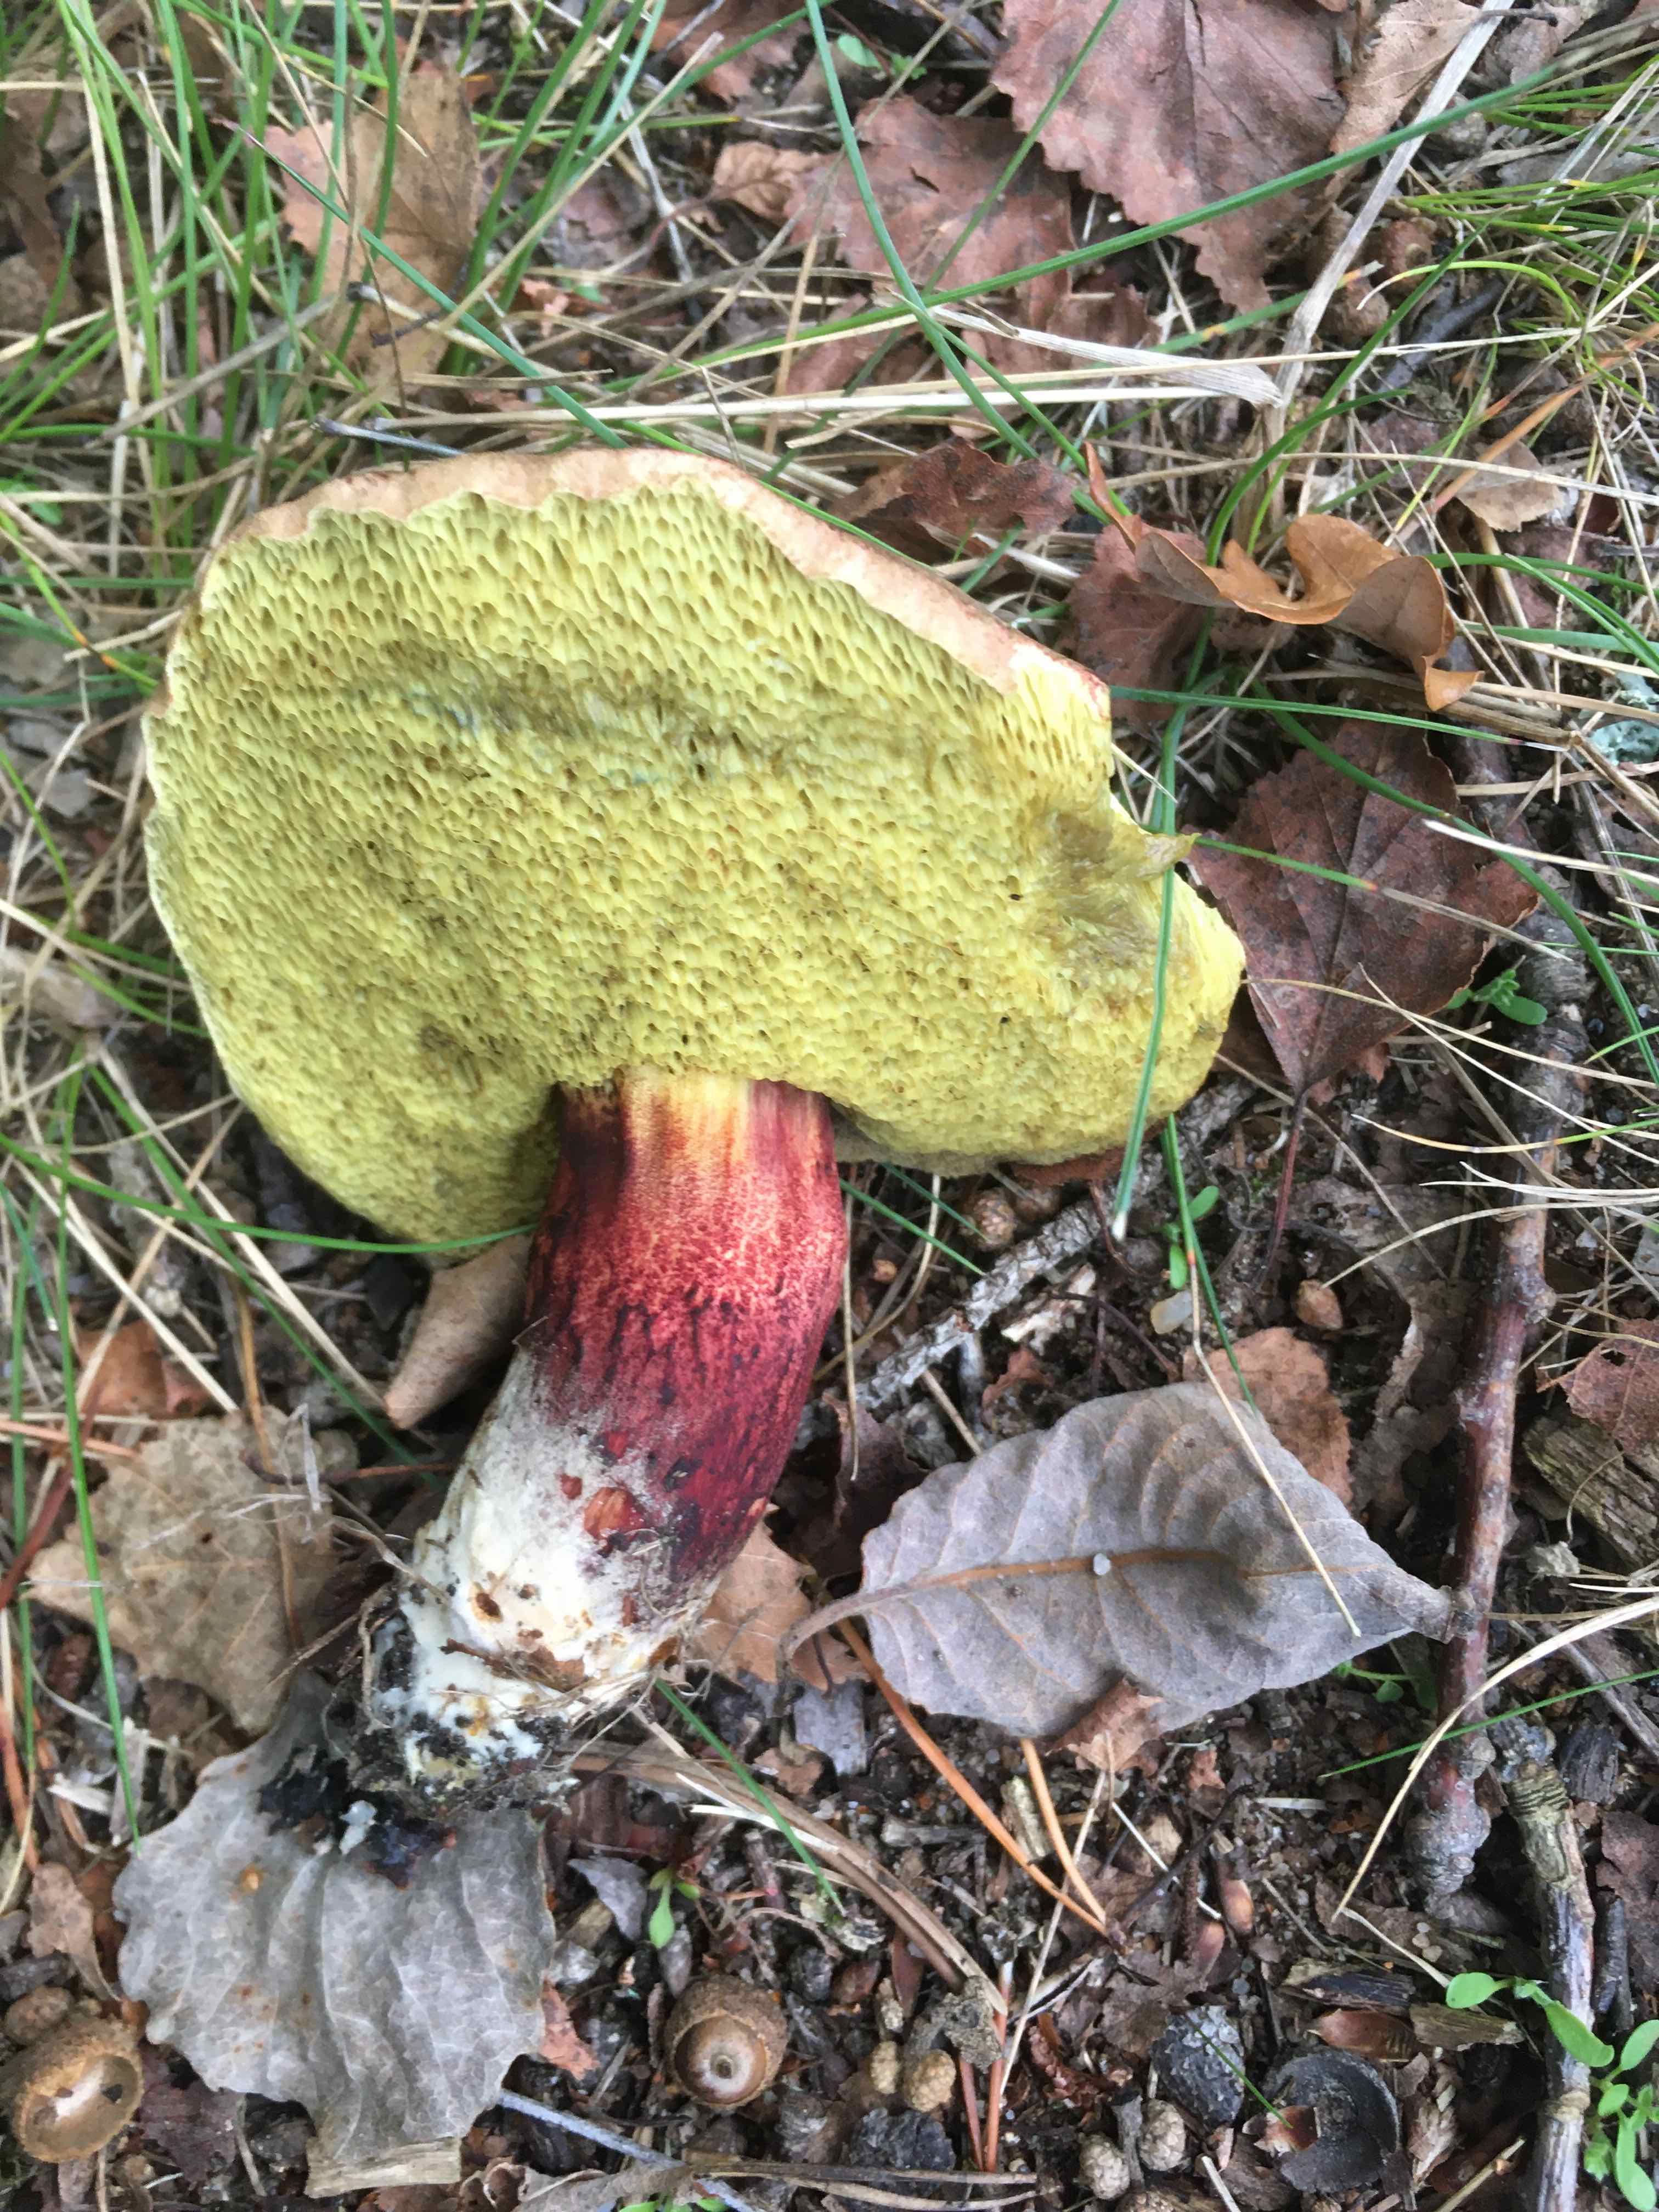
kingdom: Fungi
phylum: Basidiomycota
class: Agaricomycetes
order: Boletales
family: Boletaceae
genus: Xerocomellus
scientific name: Xerocomellus
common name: dværgrørhat
